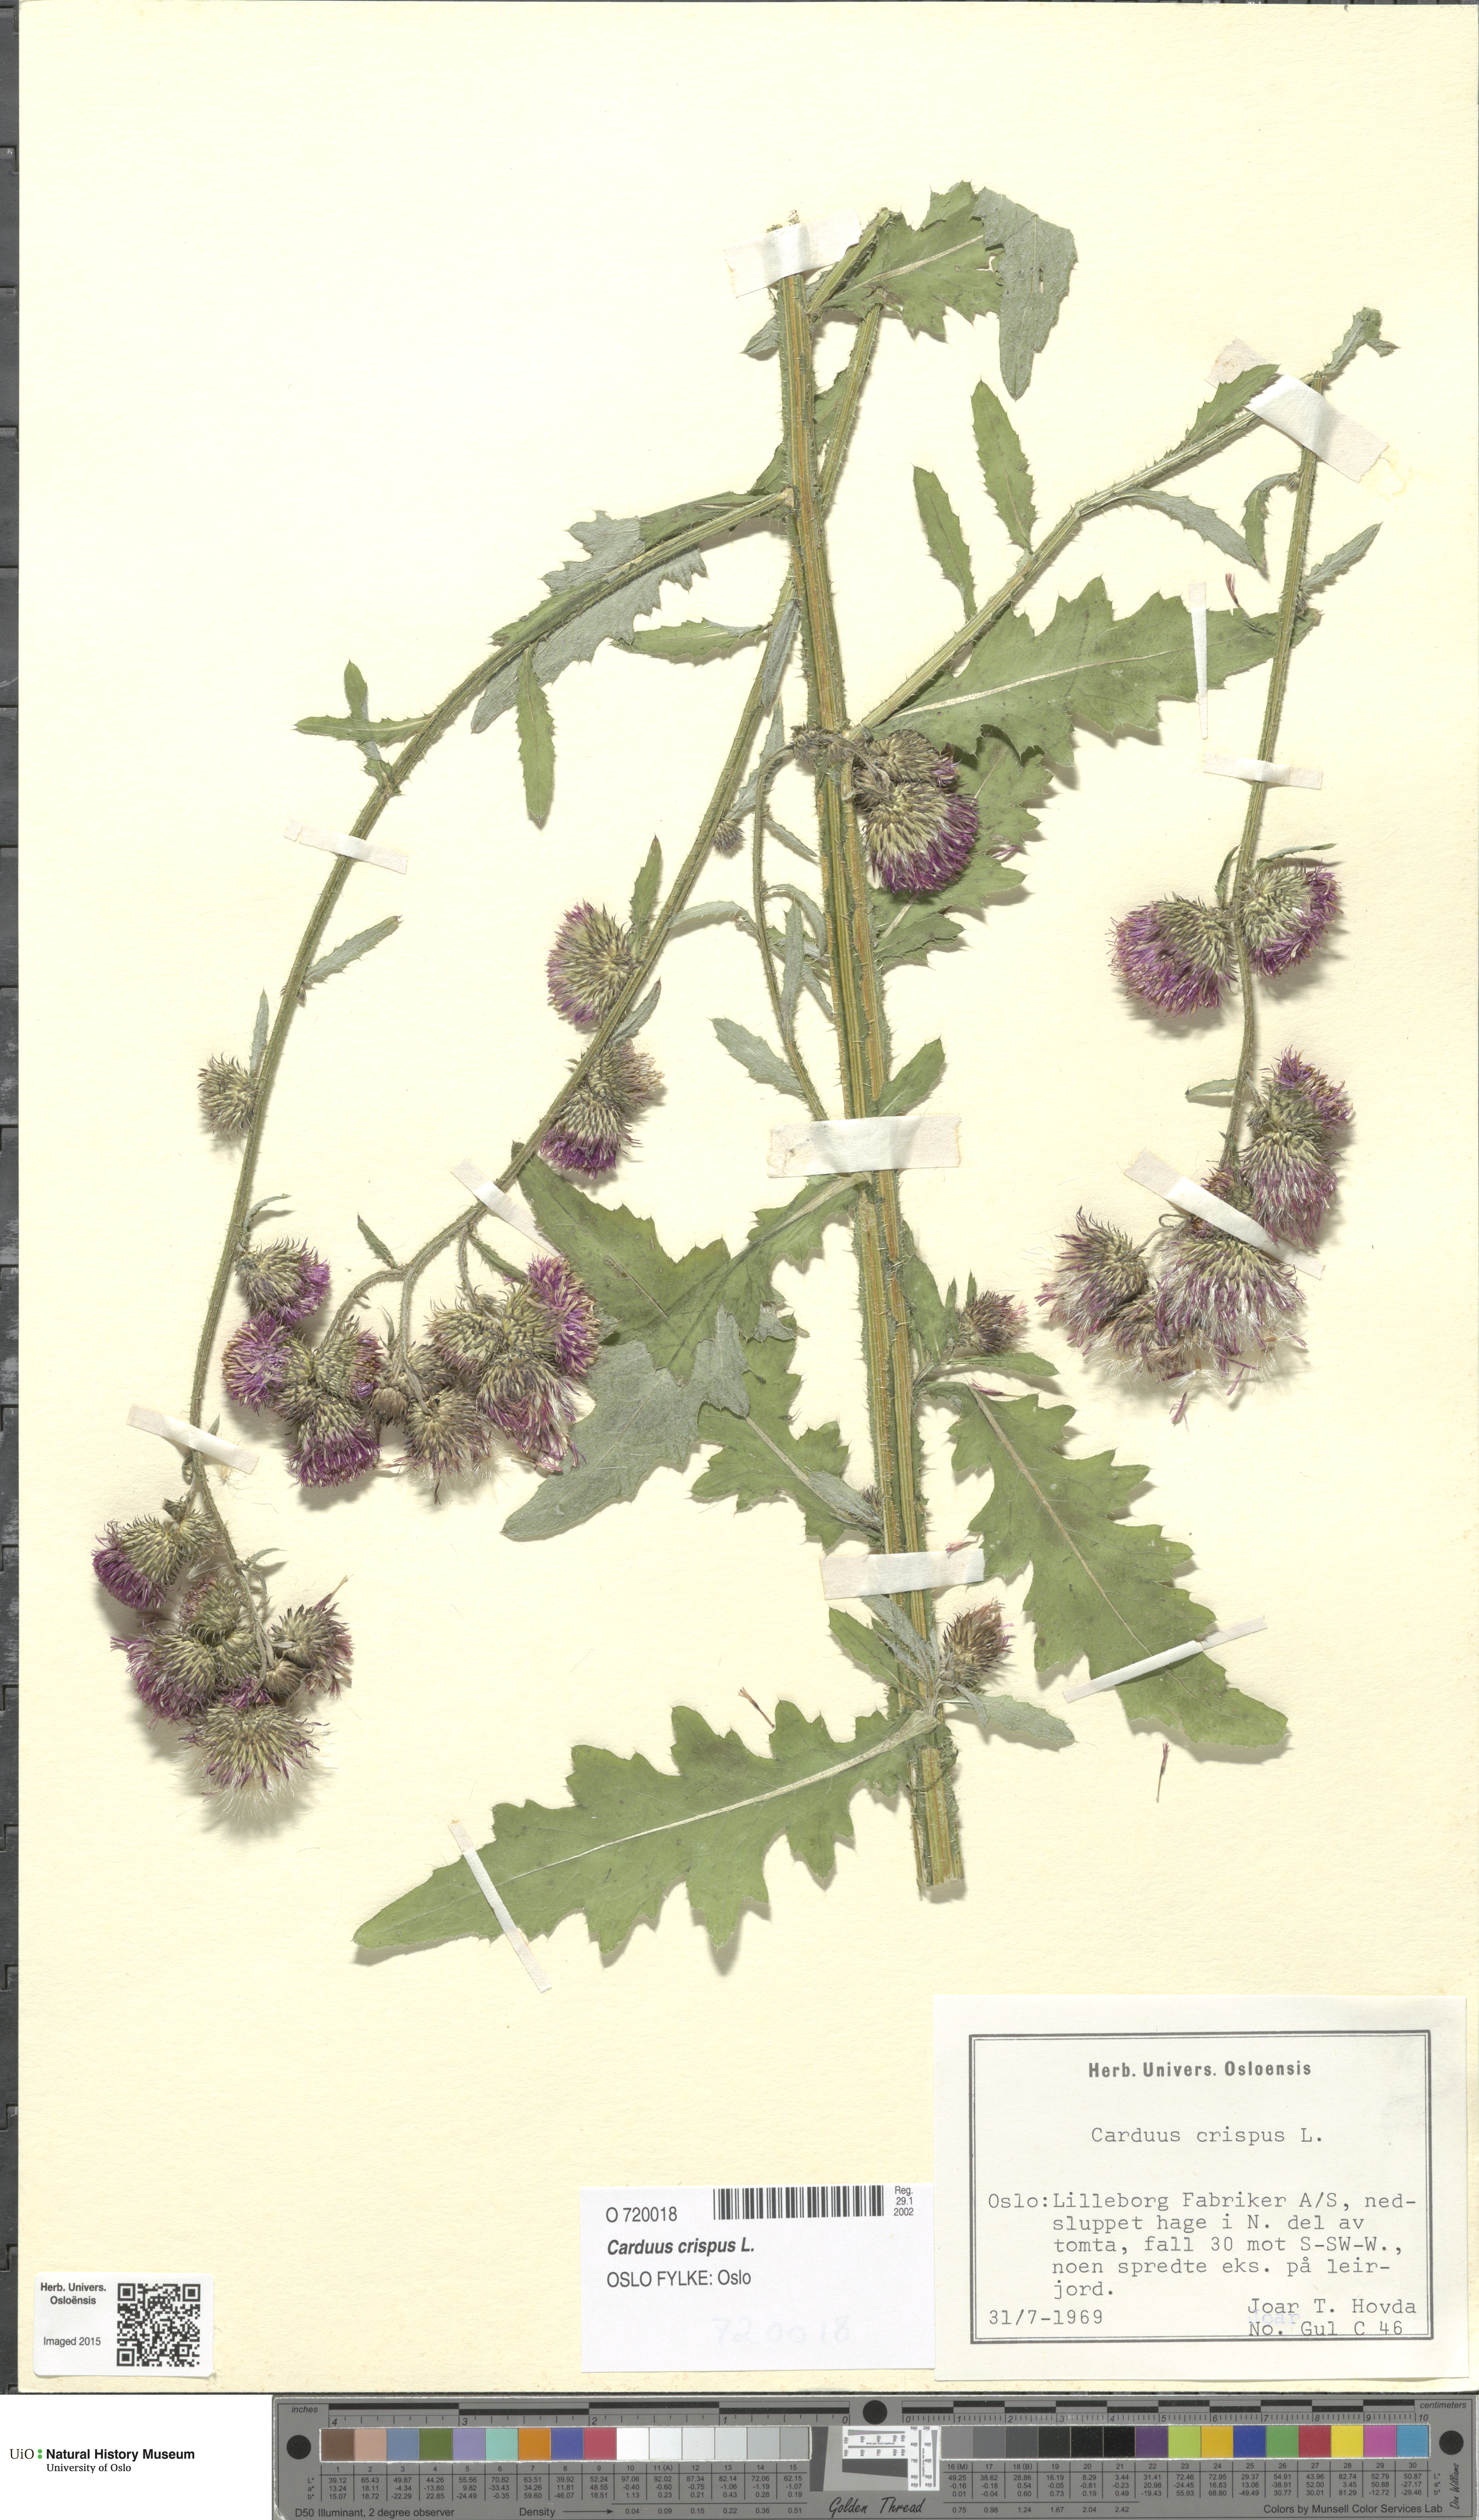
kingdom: Plantae
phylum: Tracheophyta
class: Magnoliopsida
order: Asterales
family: Asteraceae
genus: Carduus
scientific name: Carduus crispus
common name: Welted thistle
